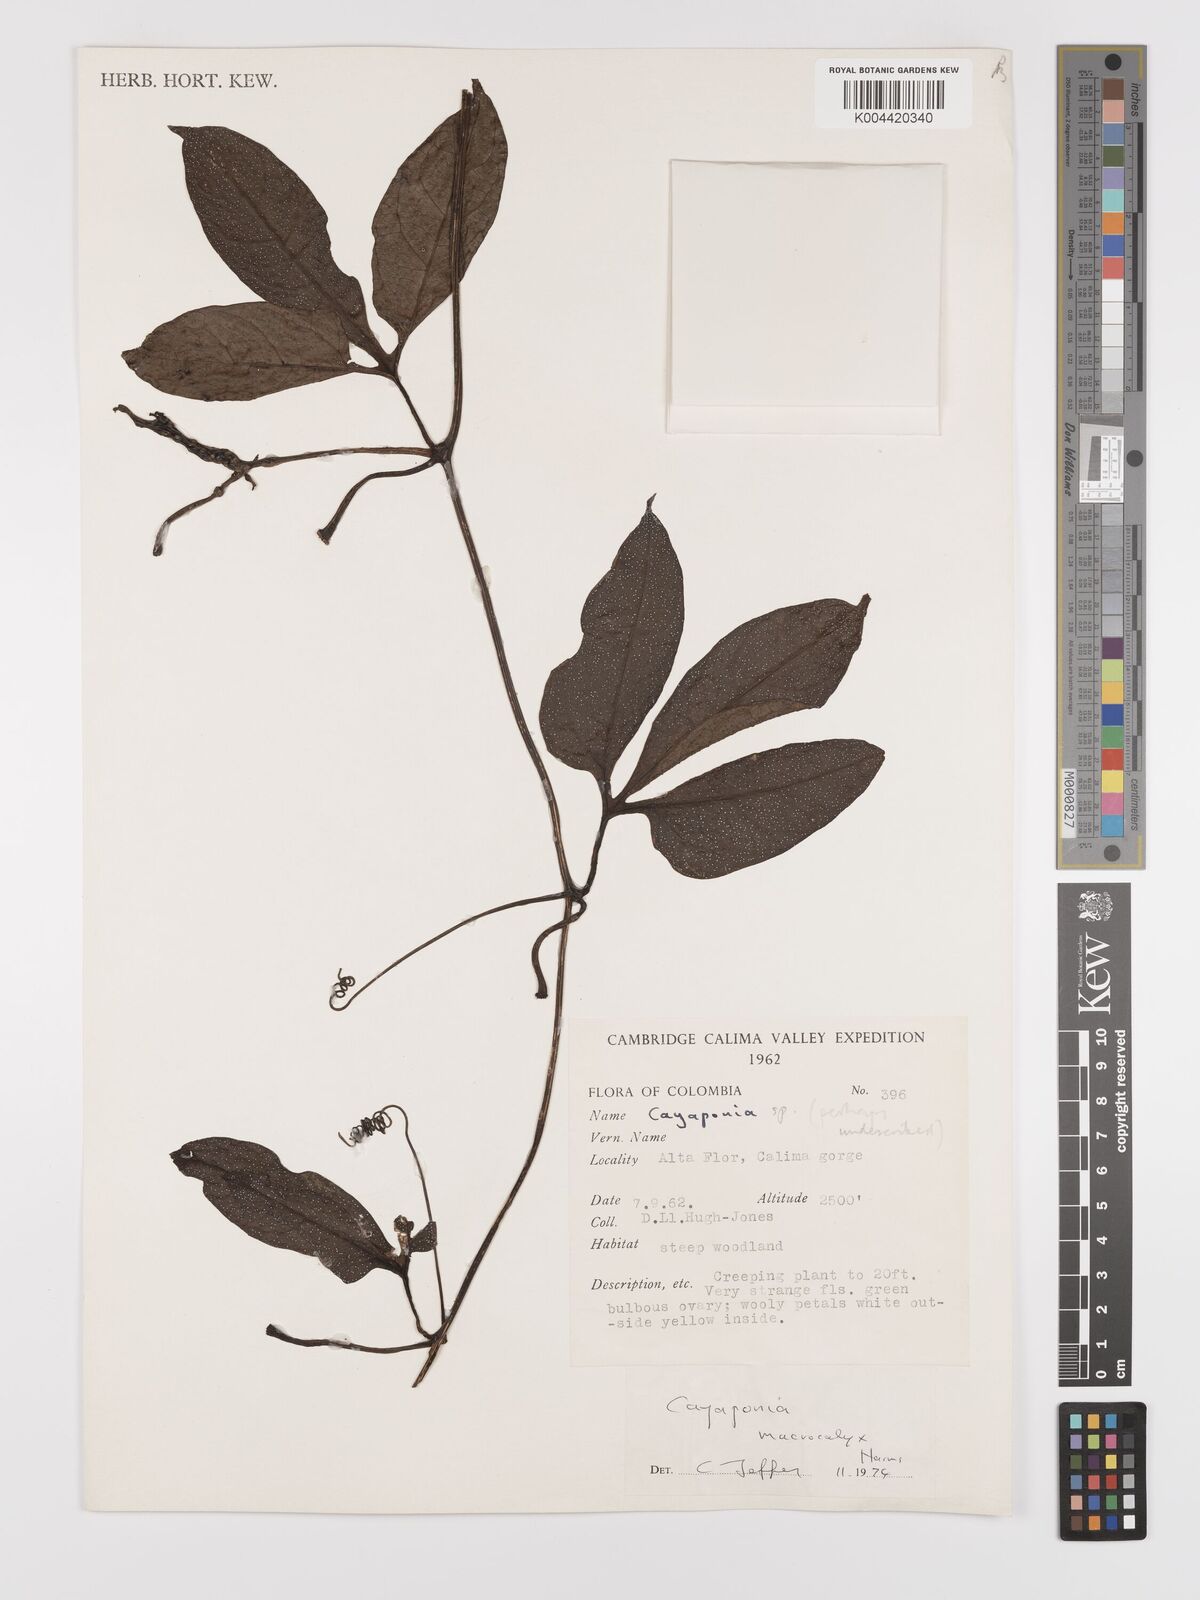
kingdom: Plantae
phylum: Tracheophyta
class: Magnoliopsida
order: Cucurbitales
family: Cucurbitaceae
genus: Cayaponia
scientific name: Cayaponia macrocalyx
